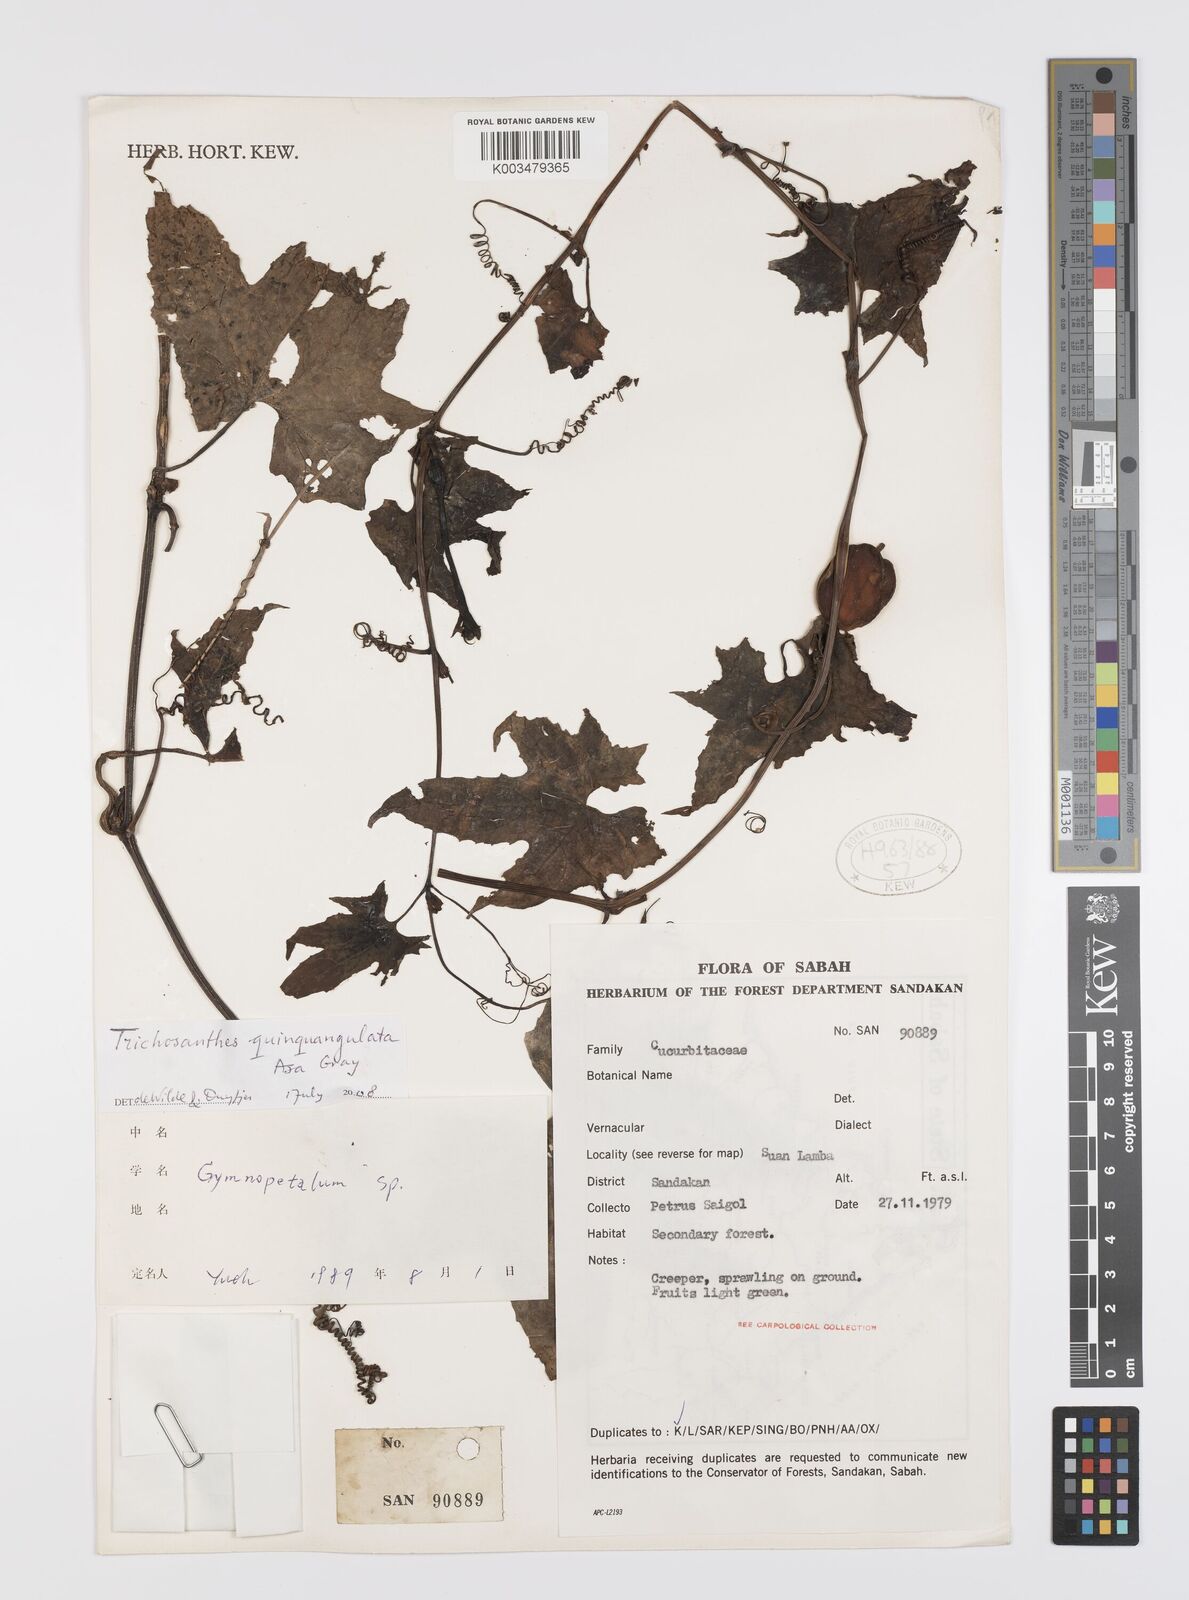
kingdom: Plantae
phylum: Tracheophyta
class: Magnoliopsida
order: Cucurbitales
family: Cucurbitaceae
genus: Trichosanthes
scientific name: Trichosanthes tricuspidata
